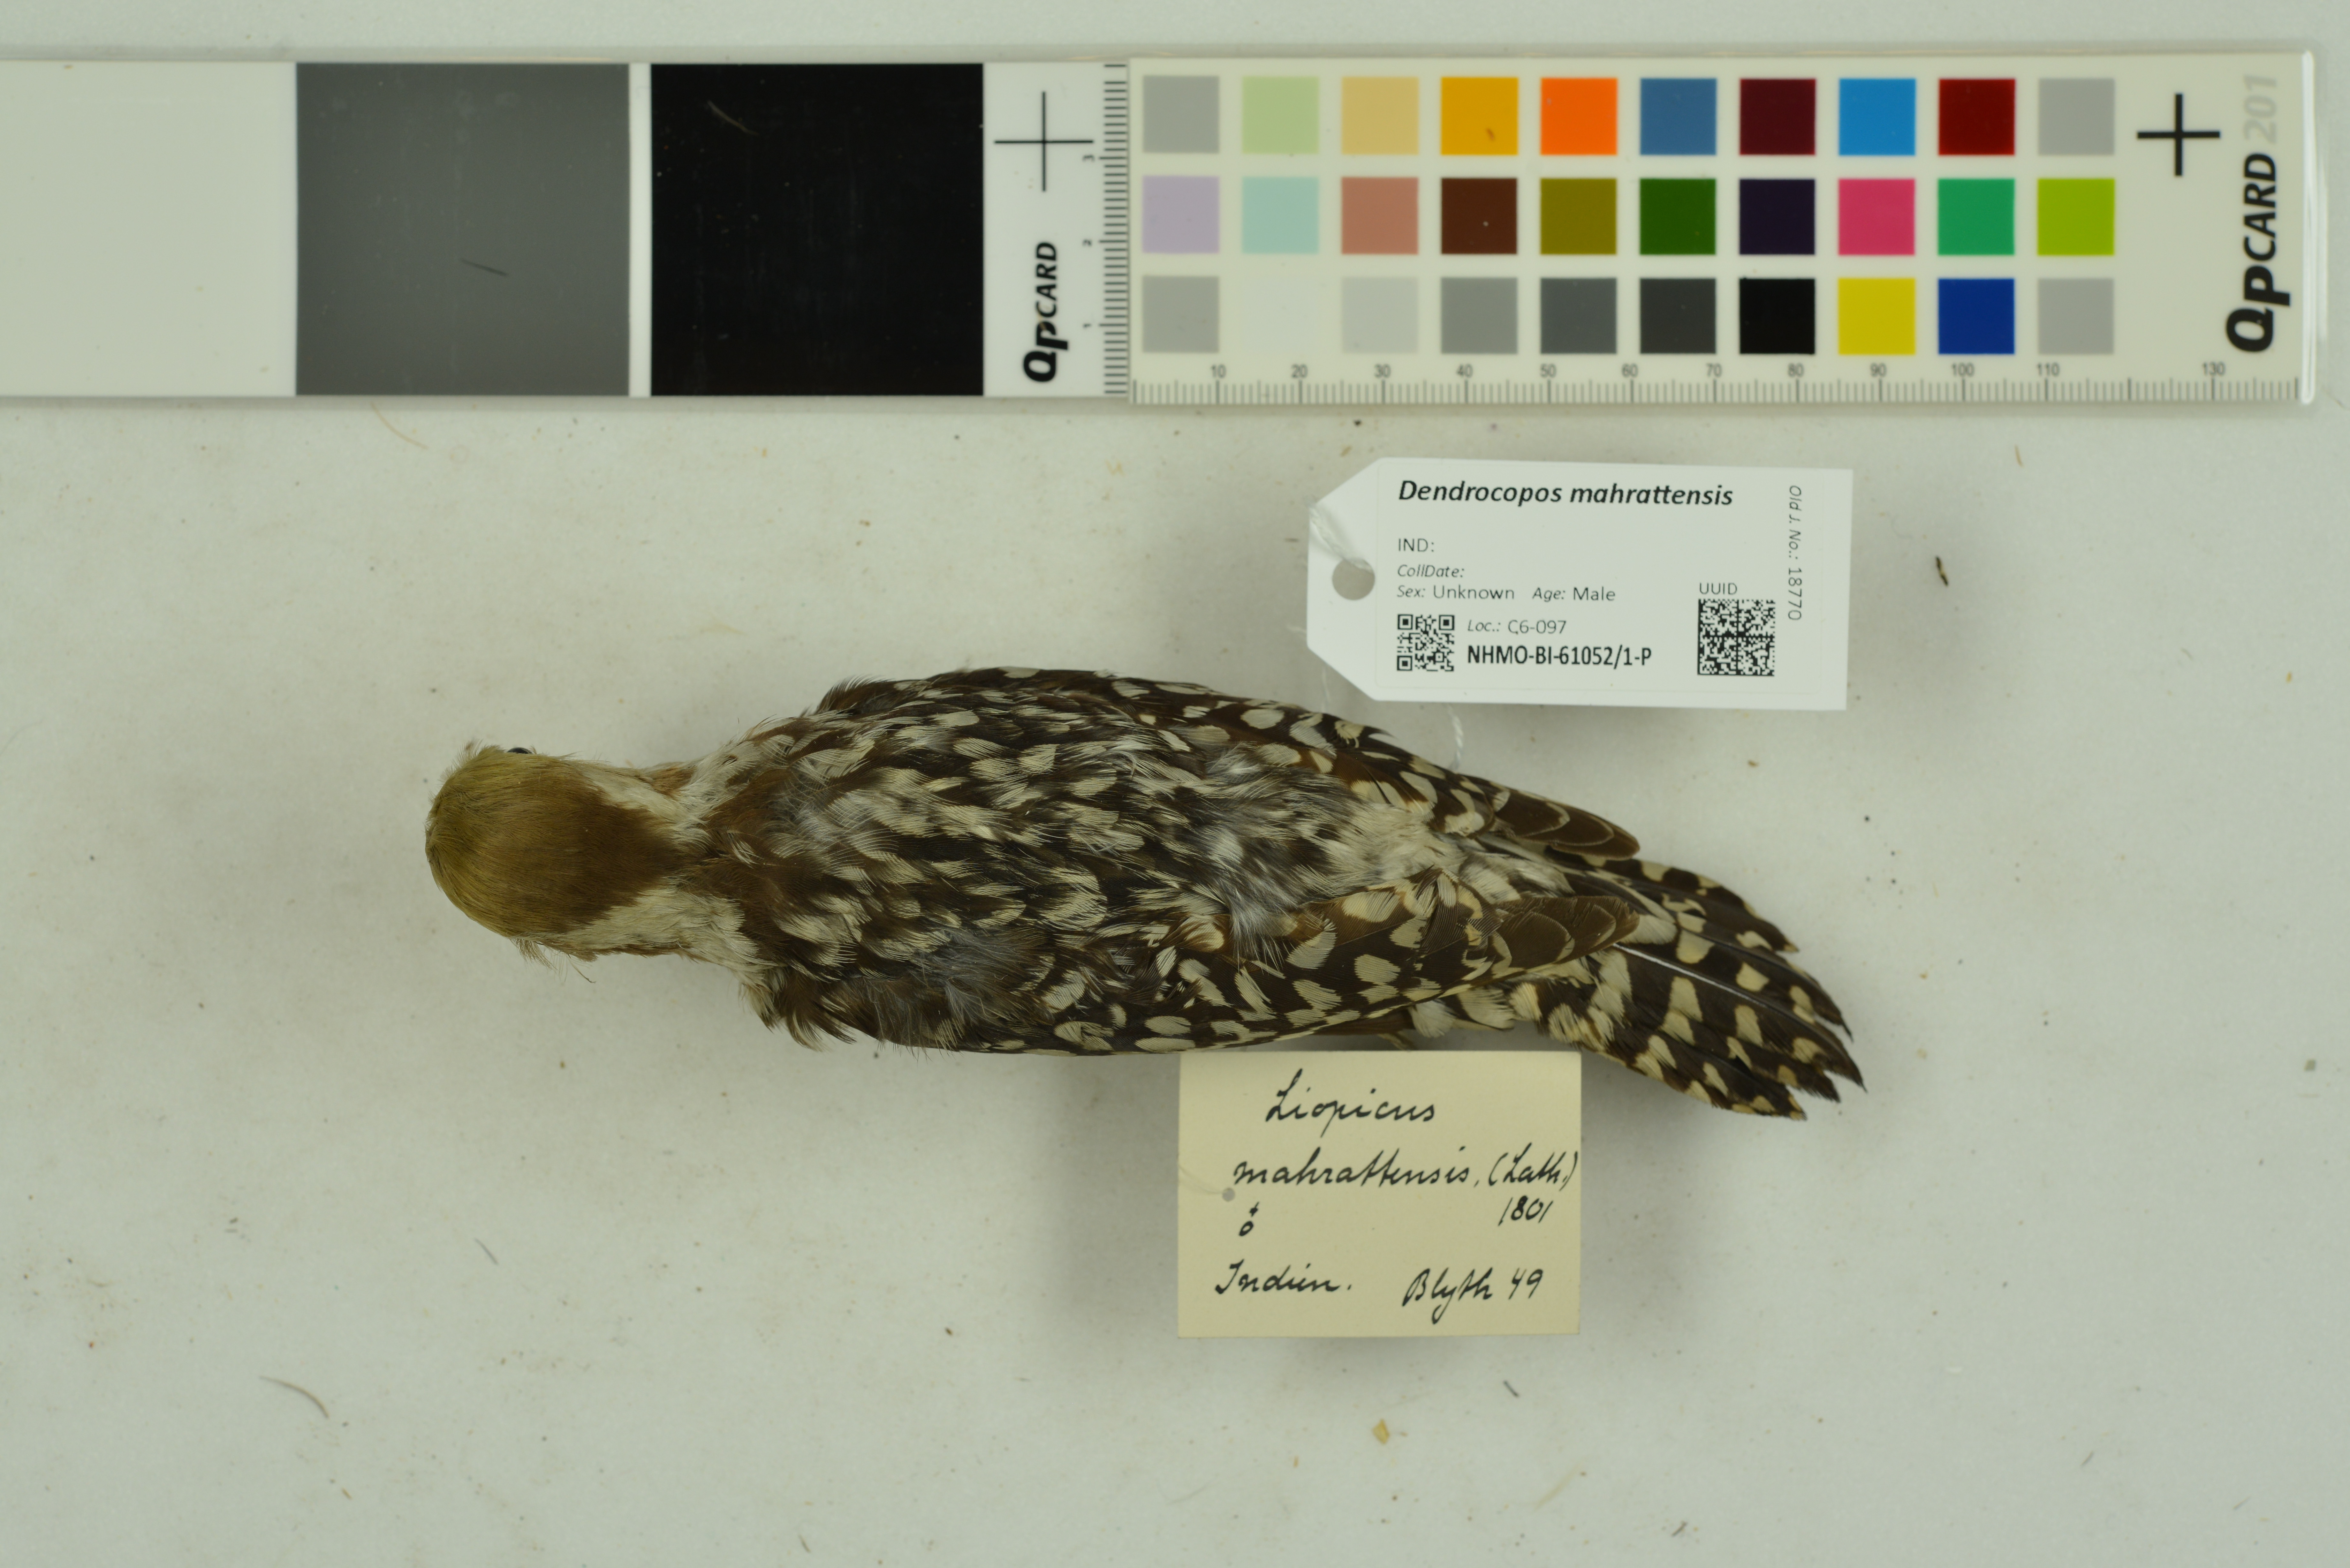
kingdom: Animalia
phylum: Chordata
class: Aves
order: Piciformes
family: Picidae
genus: Leiopicus
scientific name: Leiopicus mahrattensis
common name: Yellow-crowned woodpecker
